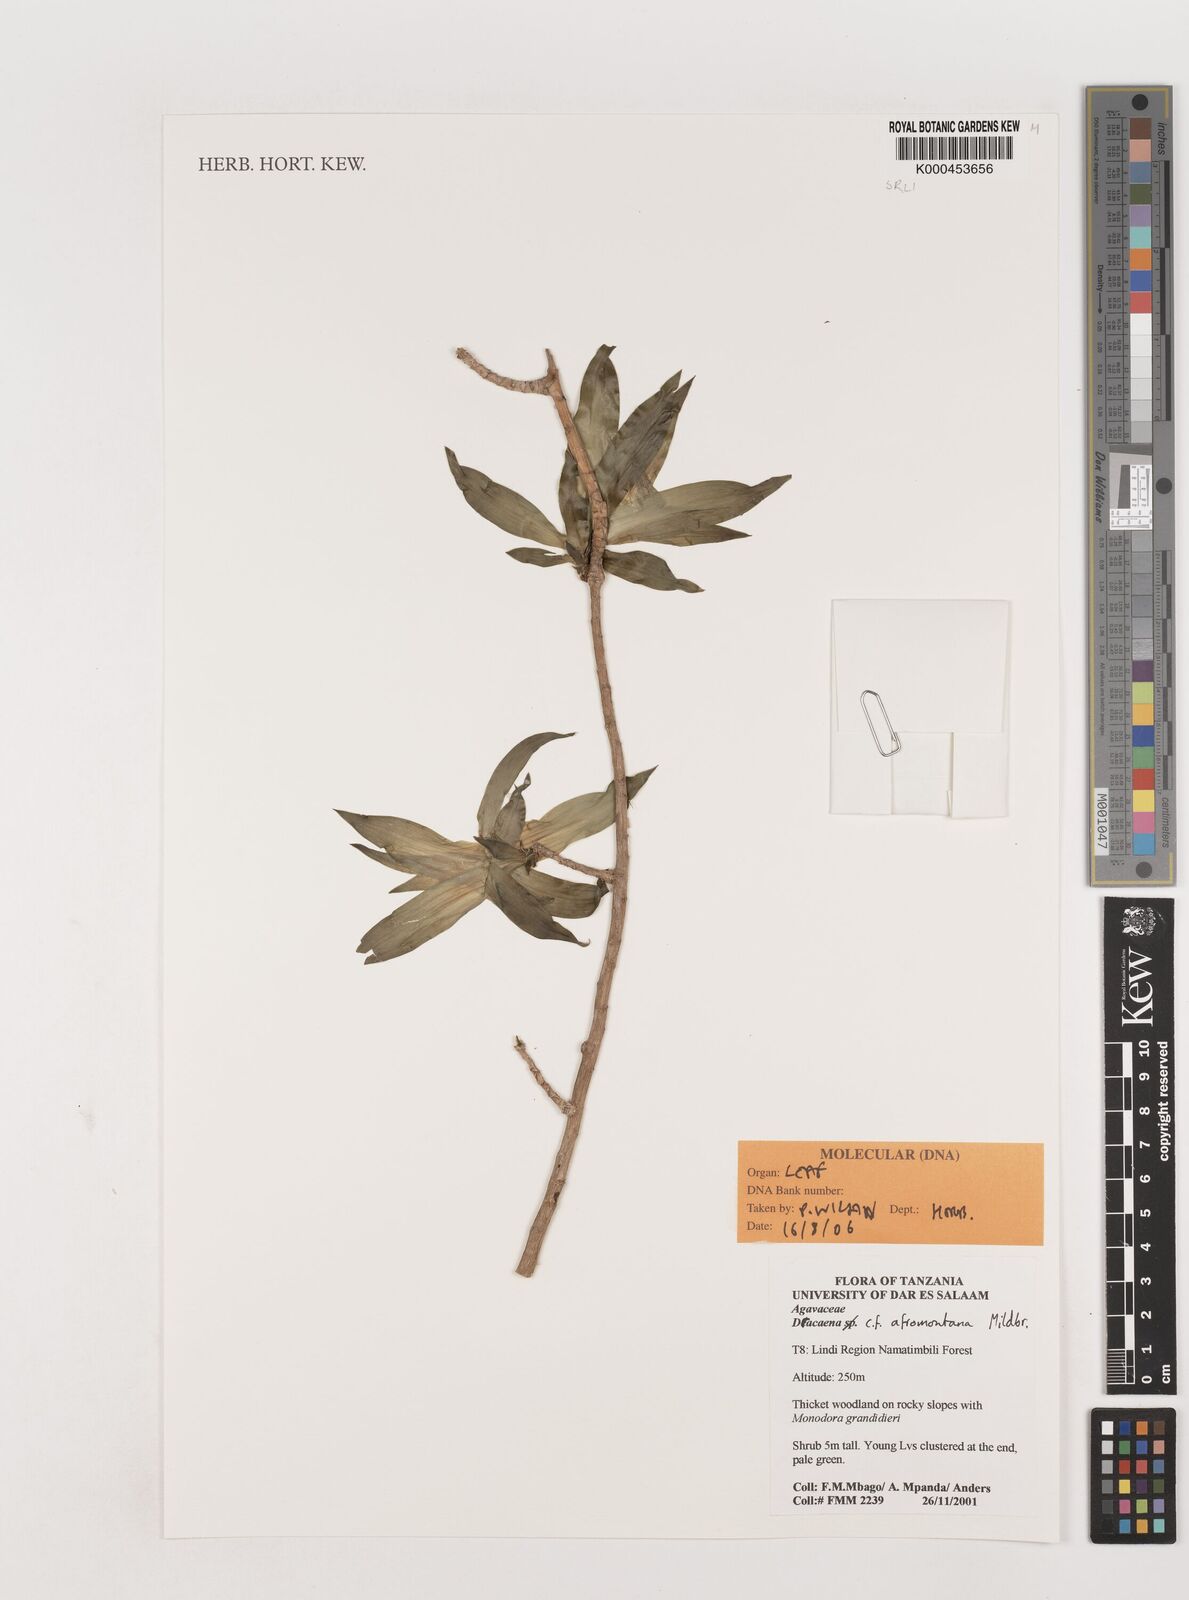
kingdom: Plantae
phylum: Tracheophyta
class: Liliopsida
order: Asparagales
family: Asparagaceae
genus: Dracaena
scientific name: Dracaena afromontana
